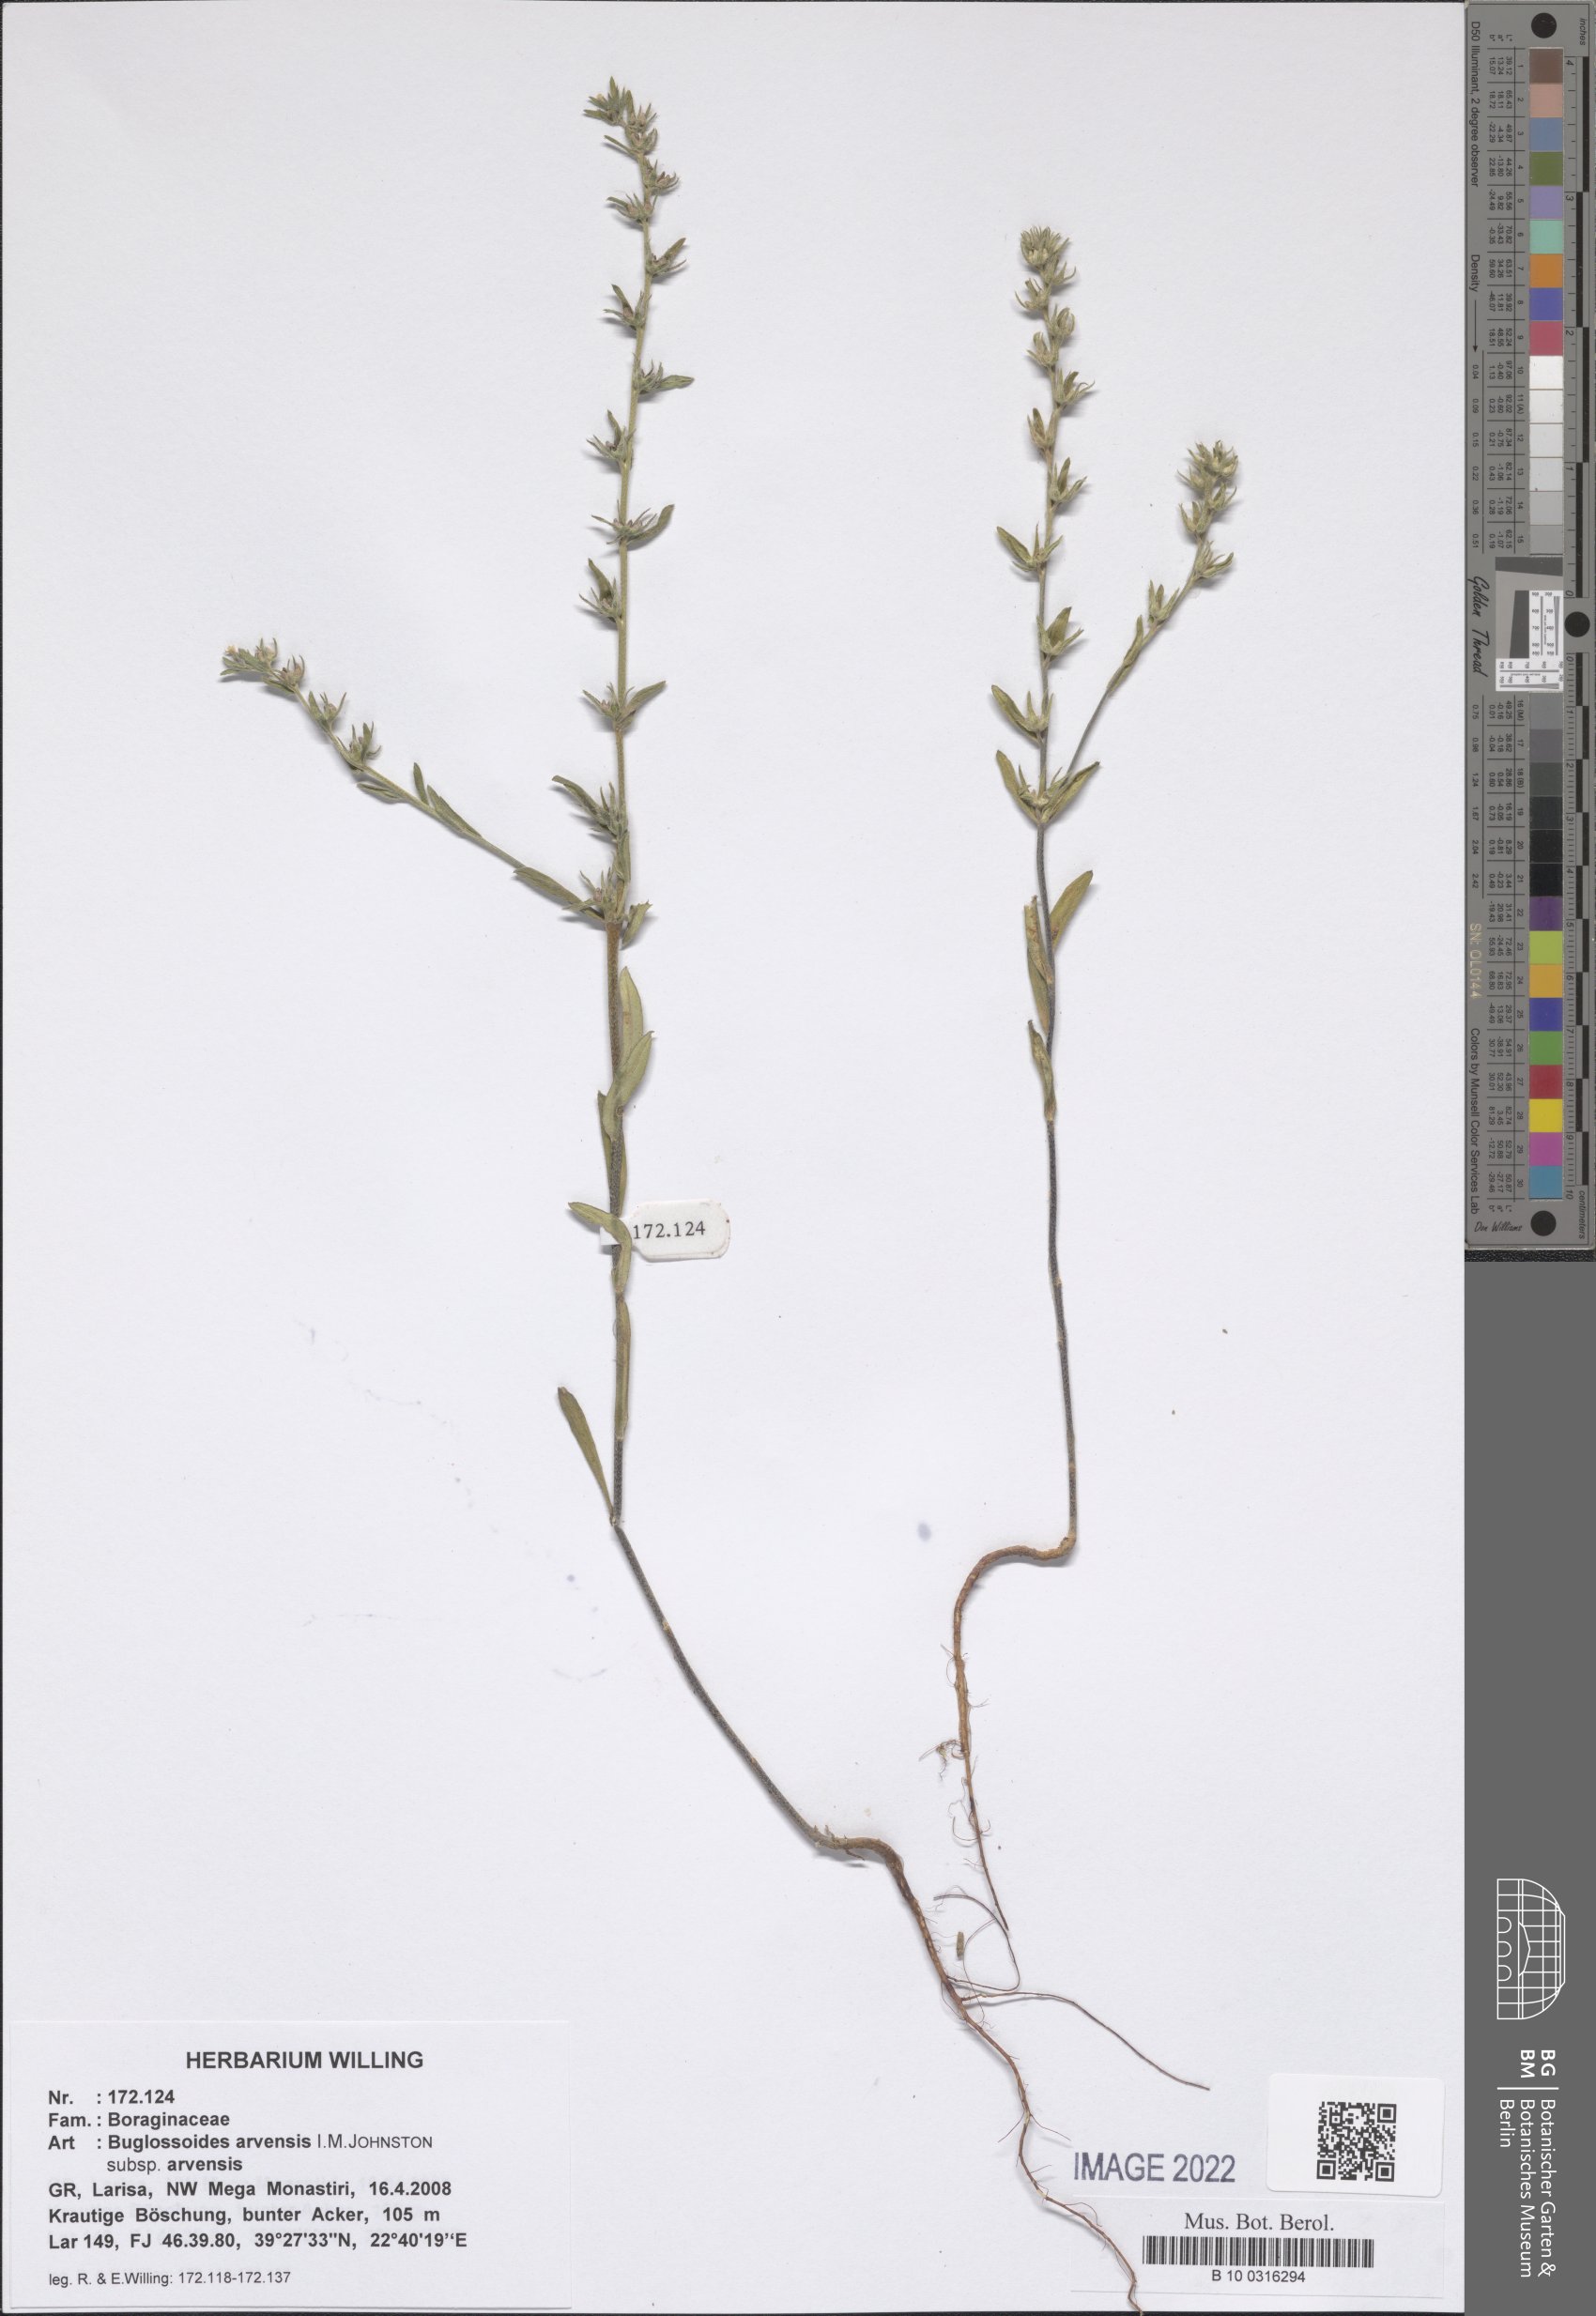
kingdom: Plantae
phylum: Tracheophyta
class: Magnoliopsida
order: Boraginales
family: Boraginaceae
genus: Buglossoides
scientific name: Buglossoides arvensis
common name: Corn gromwell
